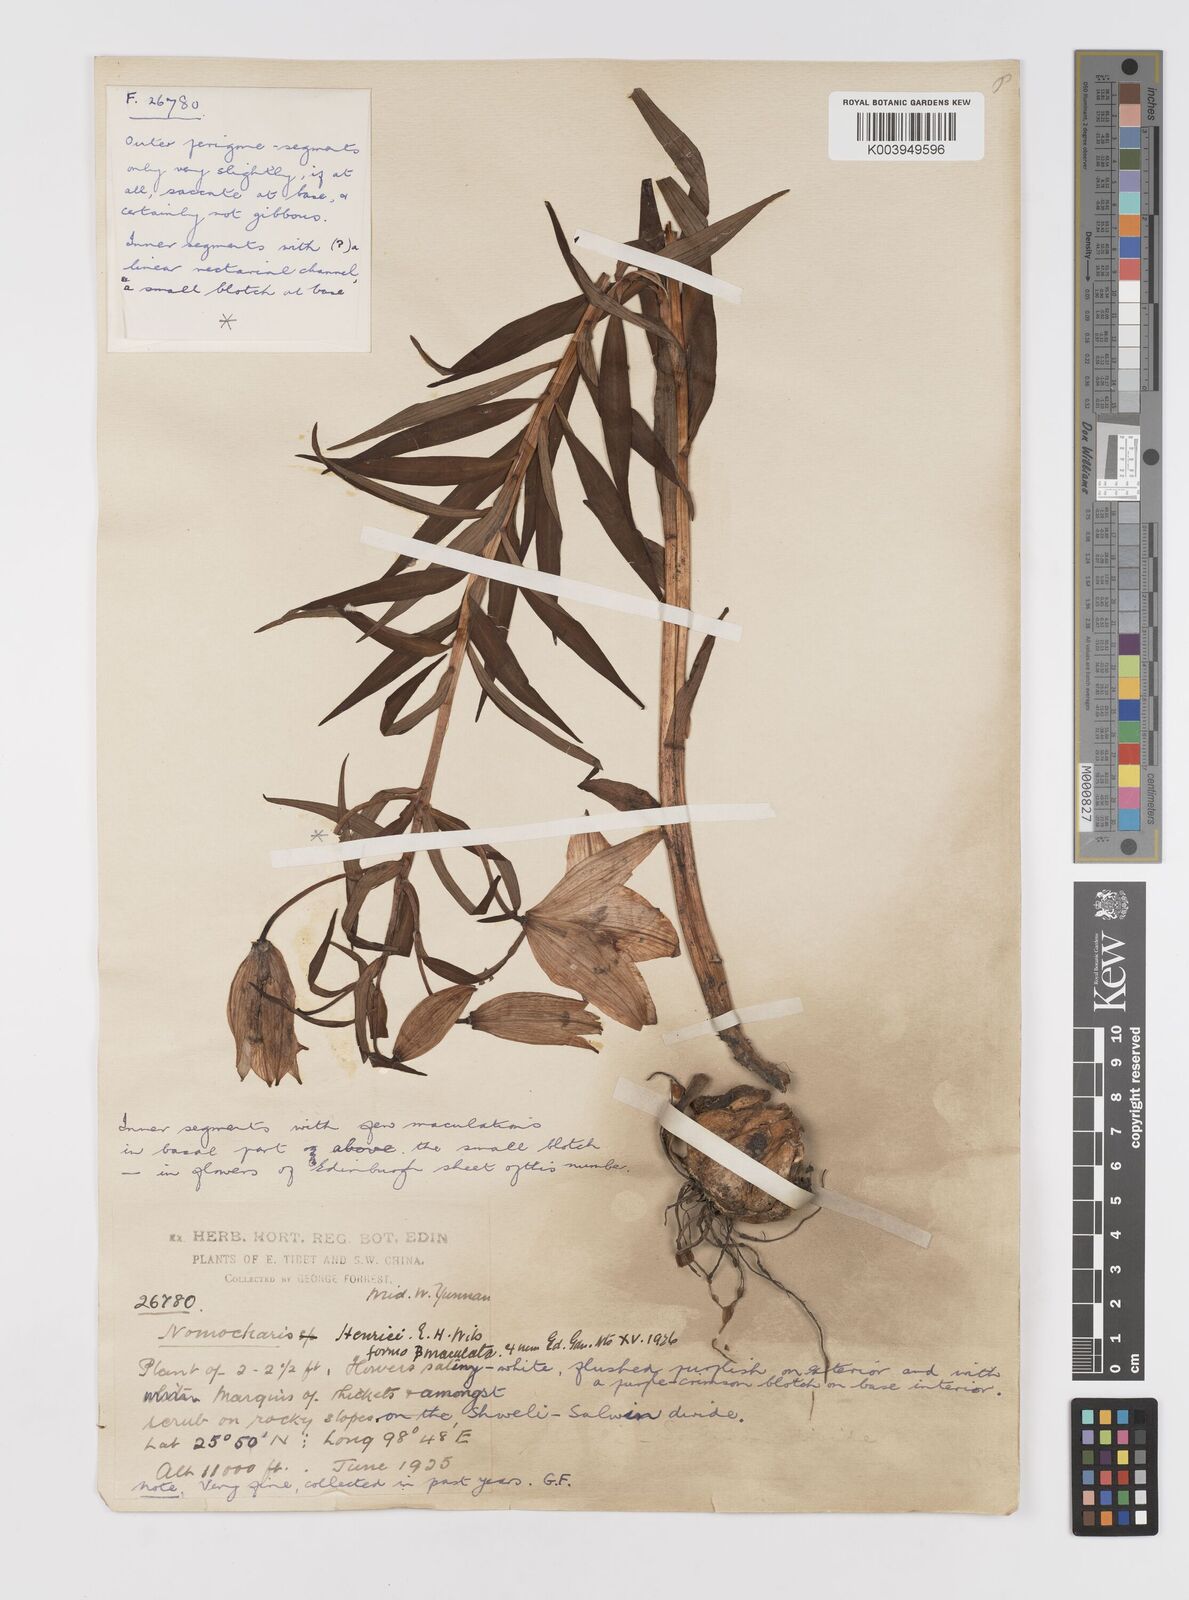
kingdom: Plantae
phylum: Tracheophyta
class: Liliopsida
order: Liliales
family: Liliaceae
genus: Lilium
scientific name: Lilium henrici
